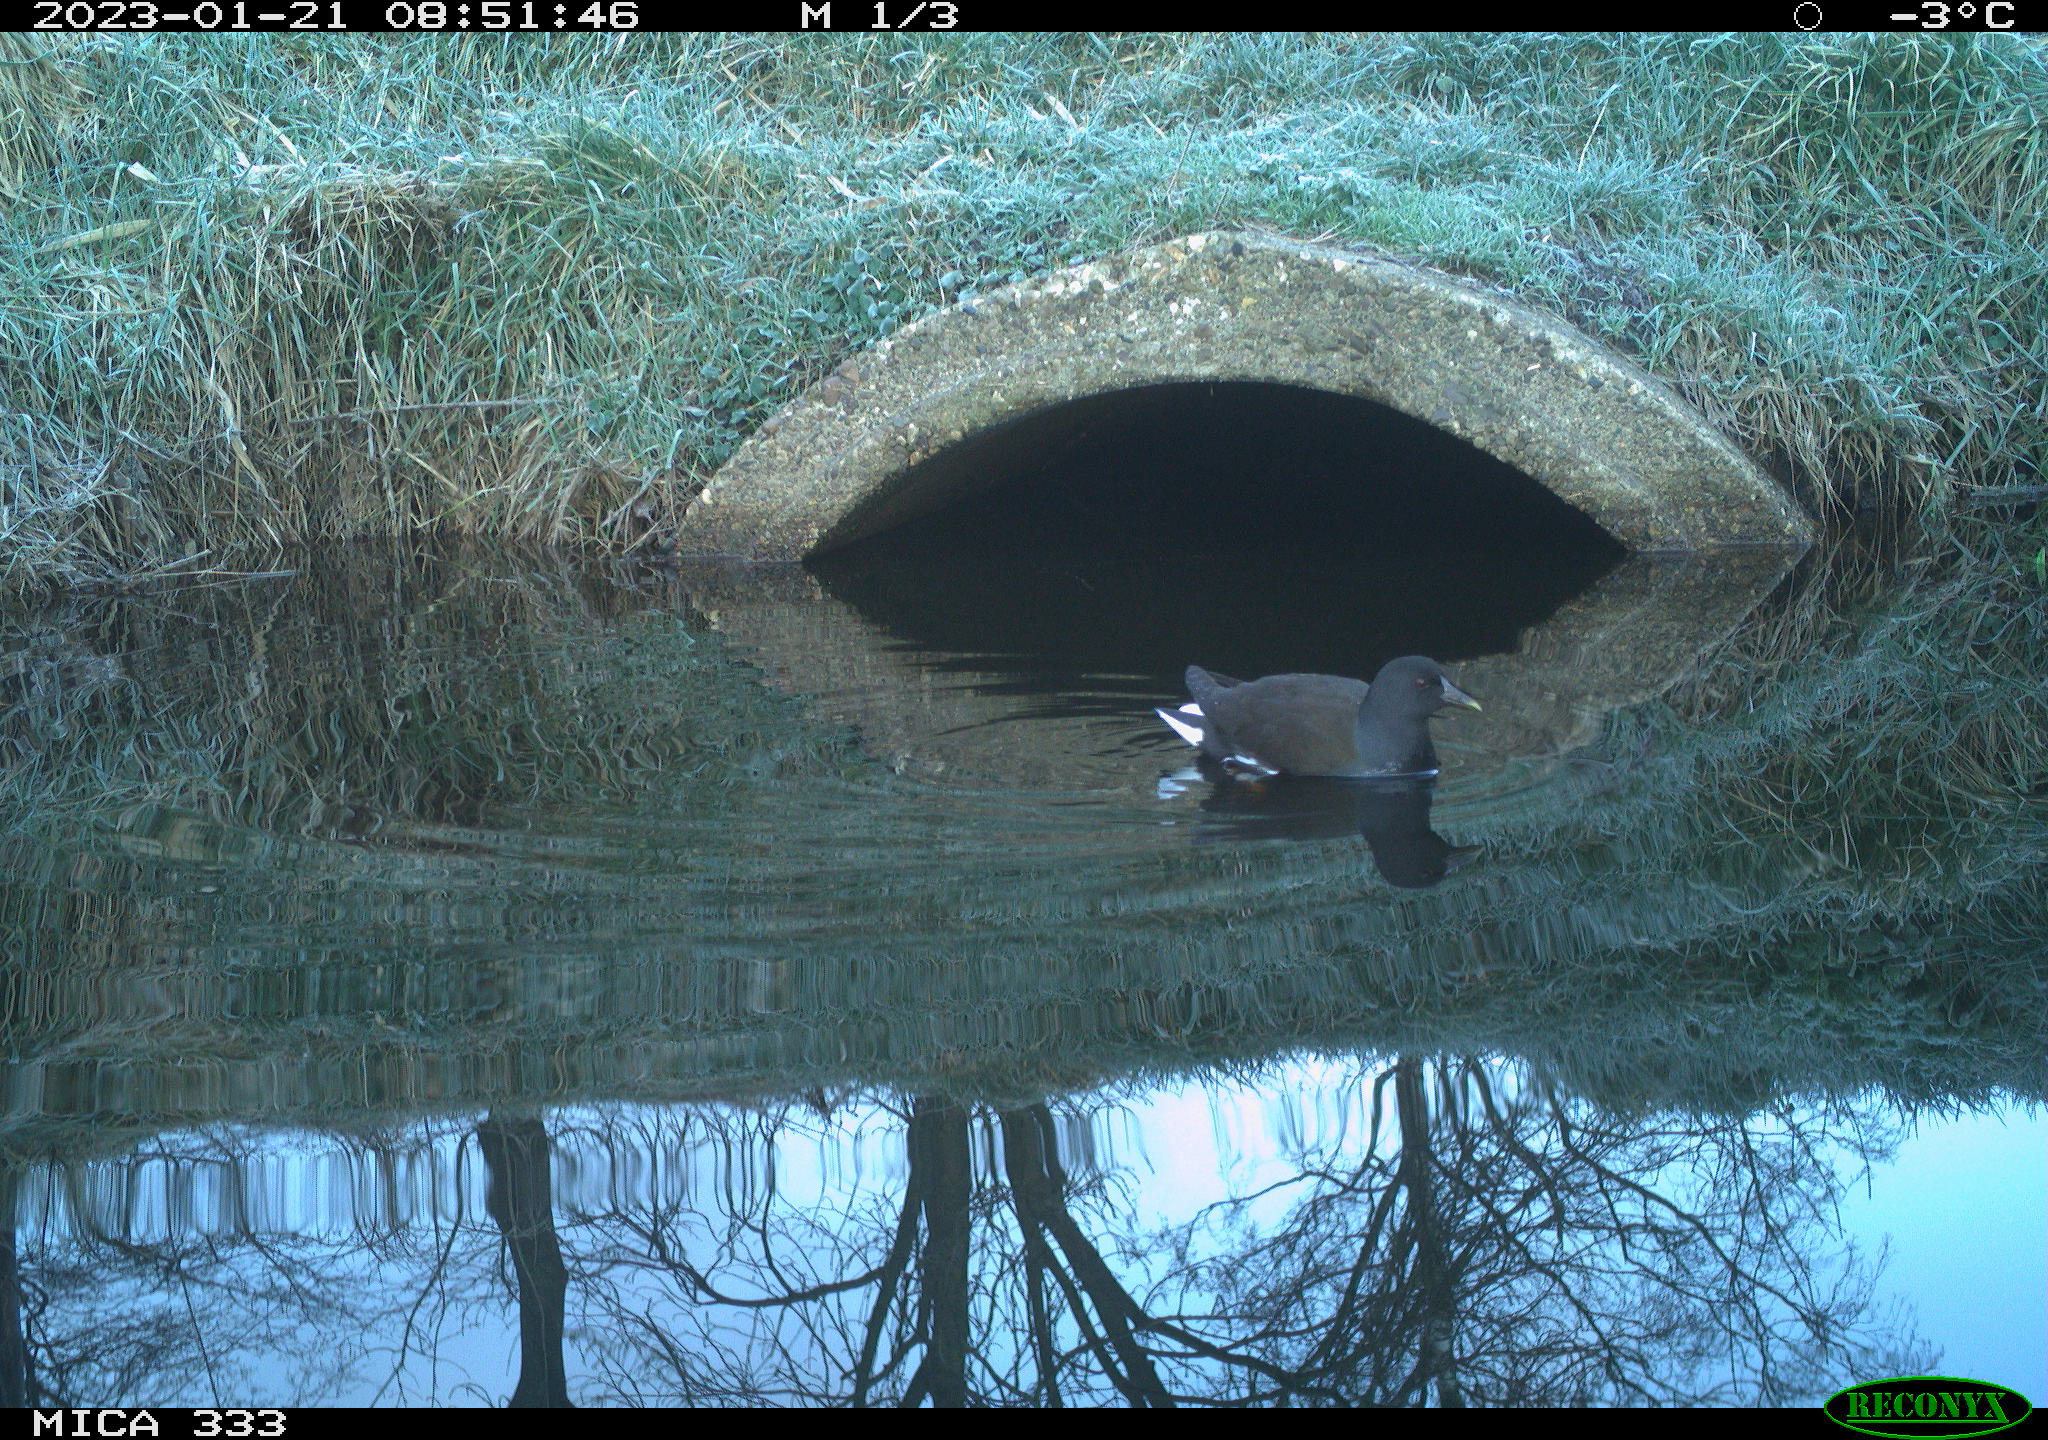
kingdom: Animalia
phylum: Chordata
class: Aves
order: Gruiformes
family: Rallidae
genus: Gallinula
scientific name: Gallinula chloropus
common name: Common moorhen
